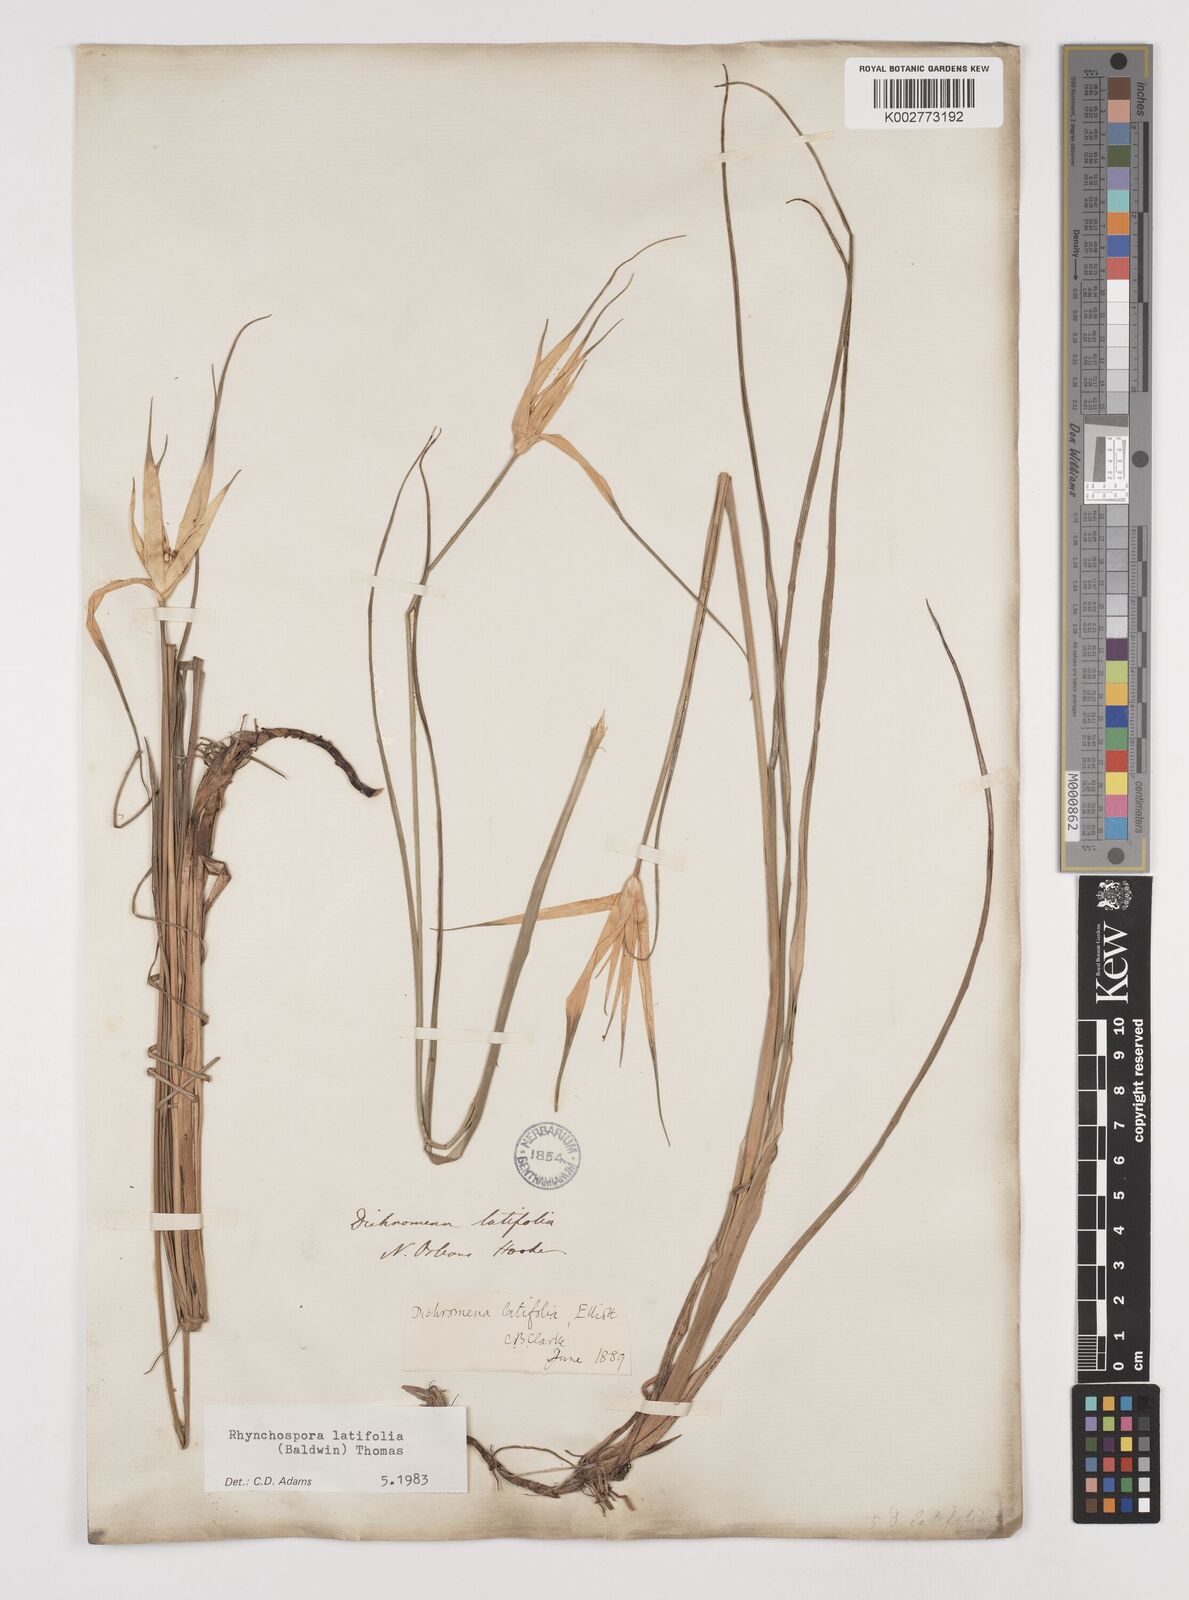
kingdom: Plantae
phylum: Tracheophyta
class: Liliopsida
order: Poales
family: Cyperaceae
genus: Rhynchospora
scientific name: Rhynchospora latifolia
